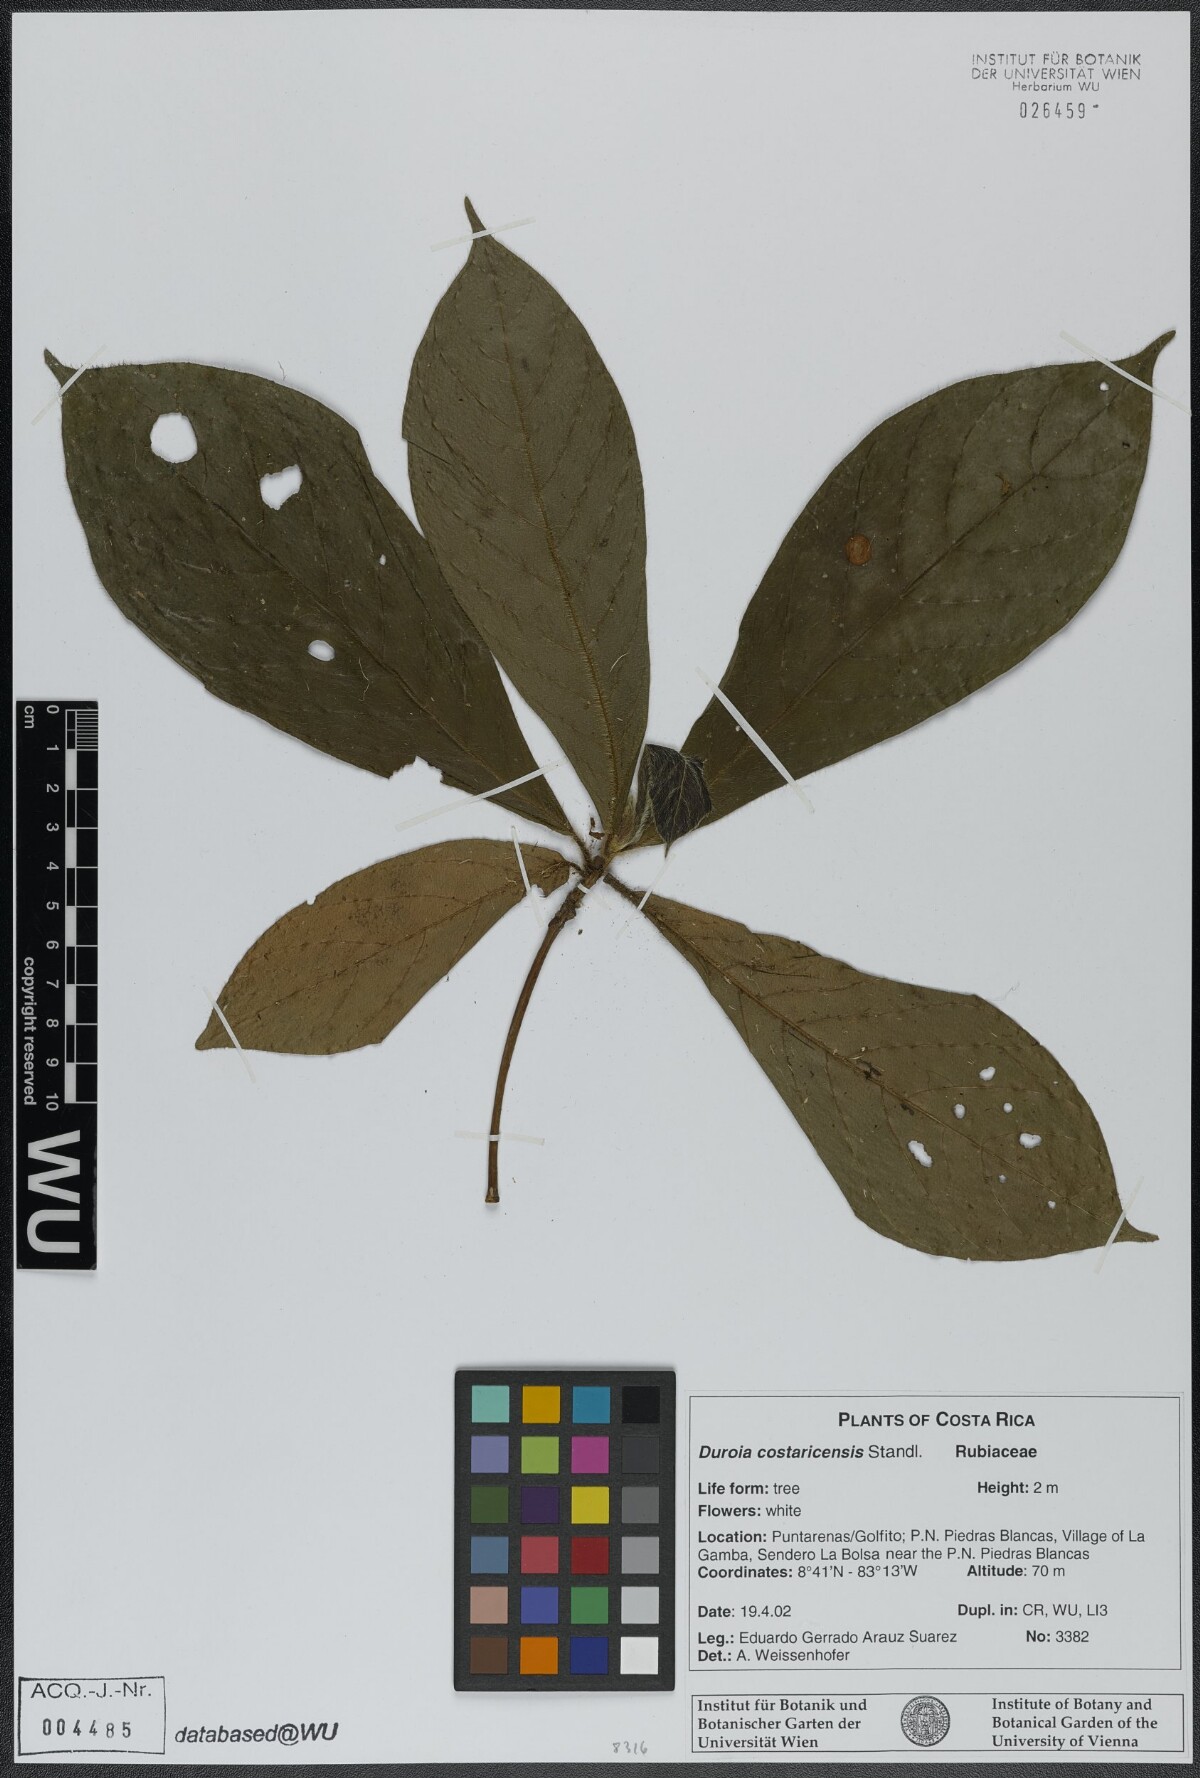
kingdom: Plantae
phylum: Tracheophyta
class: Magnoliopsida
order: Gentianales
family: Rubiaceae
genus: Duroia
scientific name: Duroia costaricensis
